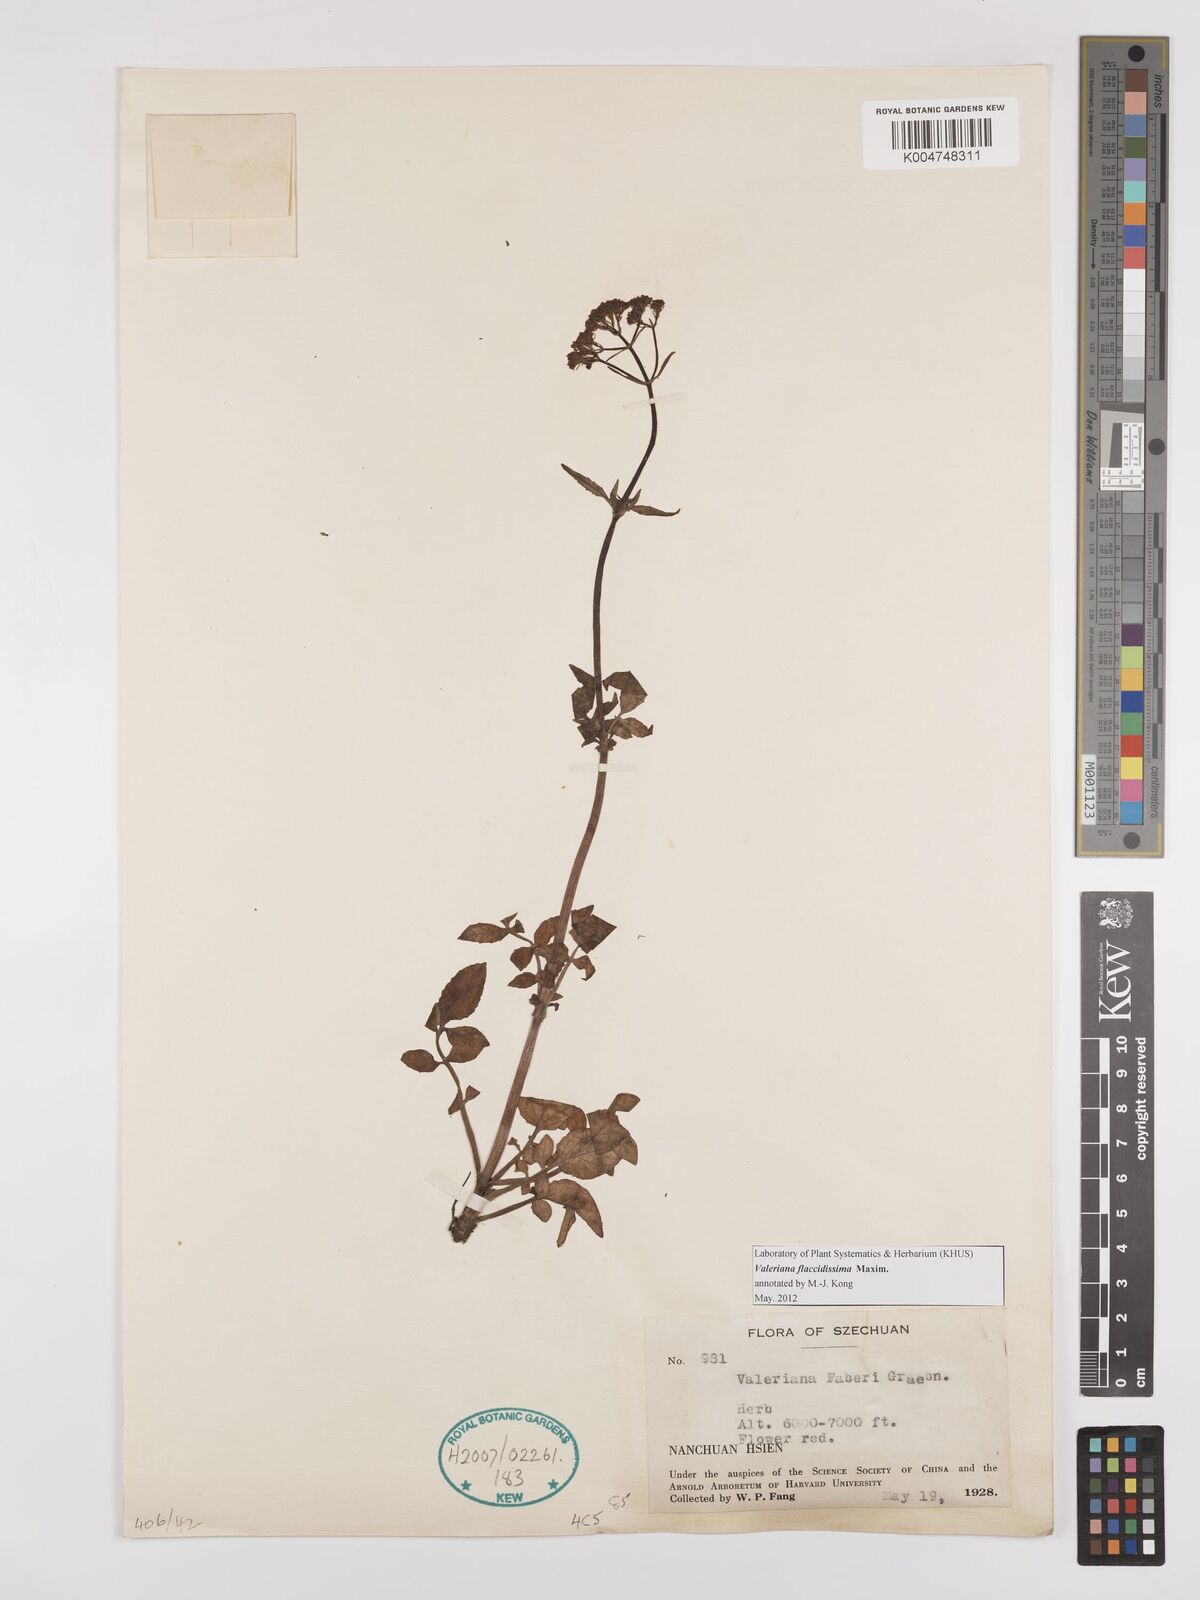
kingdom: Plantae
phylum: Tracheophyta
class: Magnoliopsida
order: Dipsacales
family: Caprifoliaceae
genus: Valeriana
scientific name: Valeriana flaccidissima
